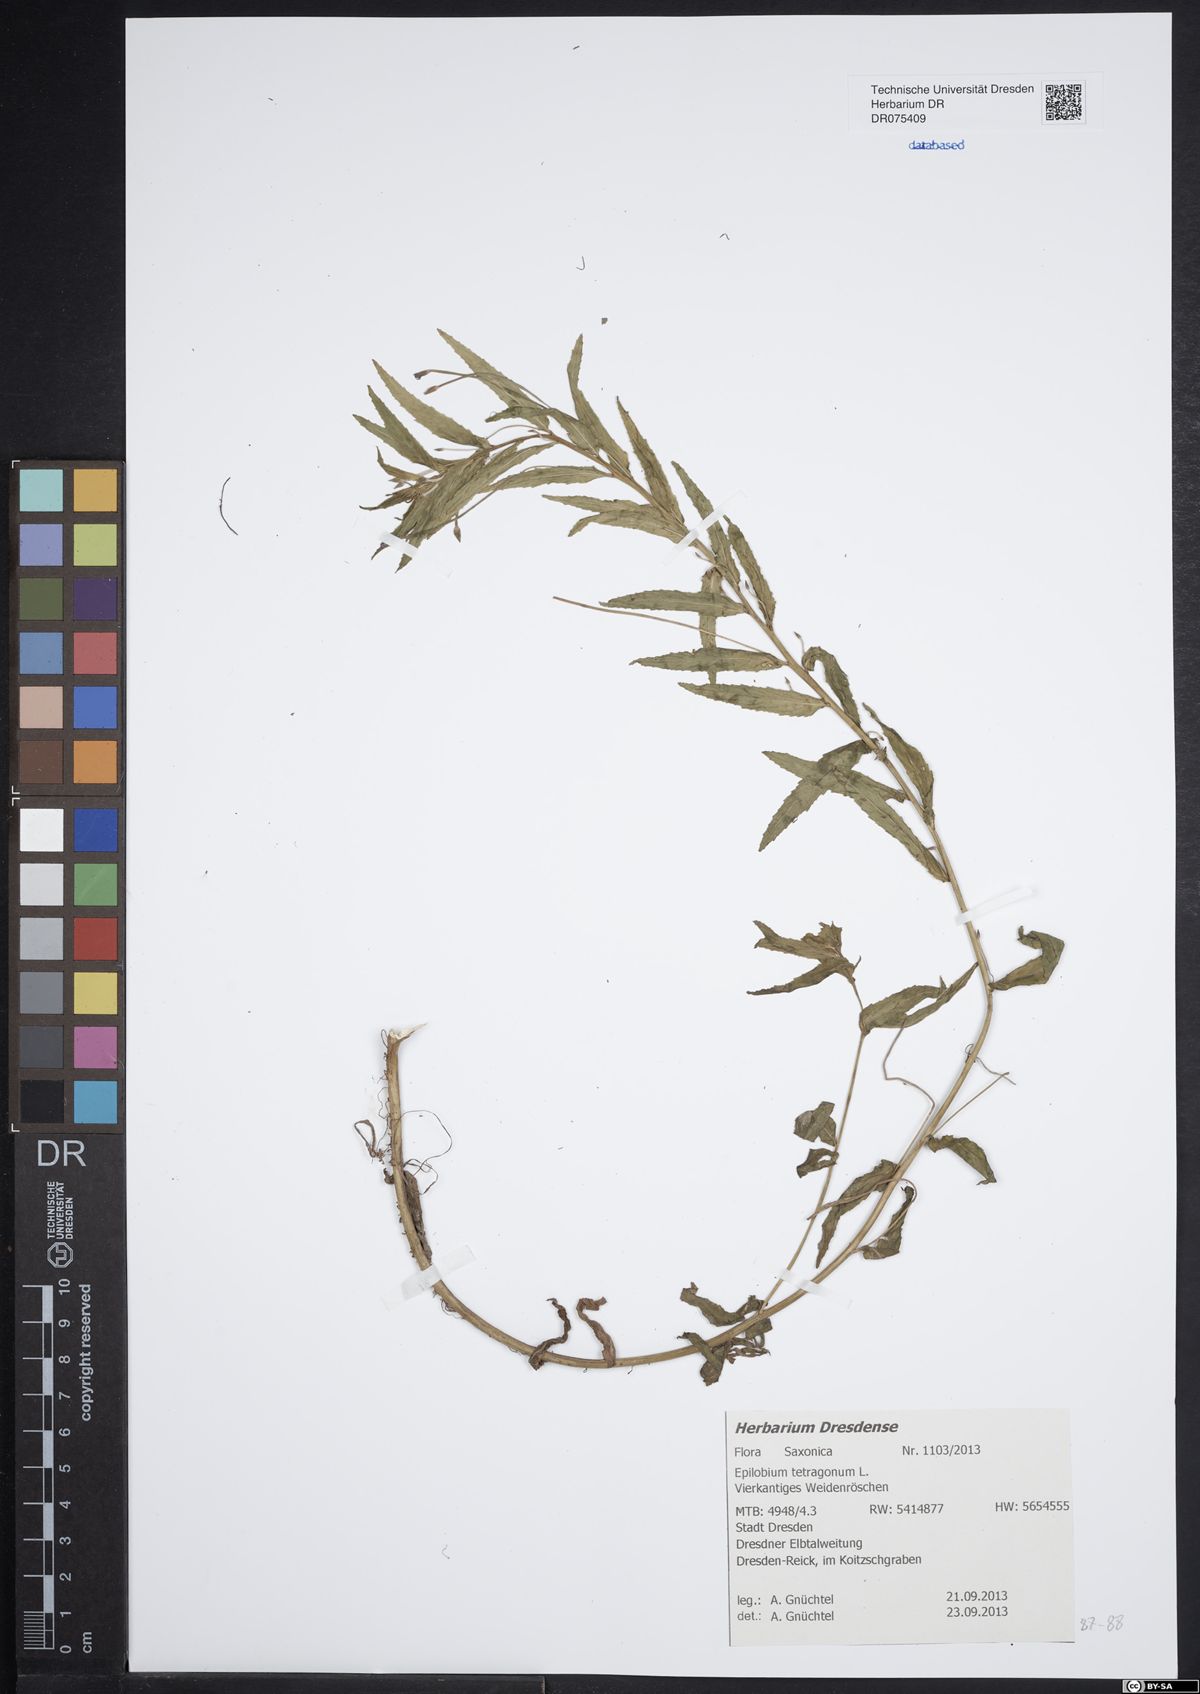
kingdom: Plantae
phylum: Tracheophyta
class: Magnoliopsida
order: Myrtales
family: Onagraceae
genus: Epilobium
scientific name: Epilobium tetragonum
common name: Square-stemmed willowherb
